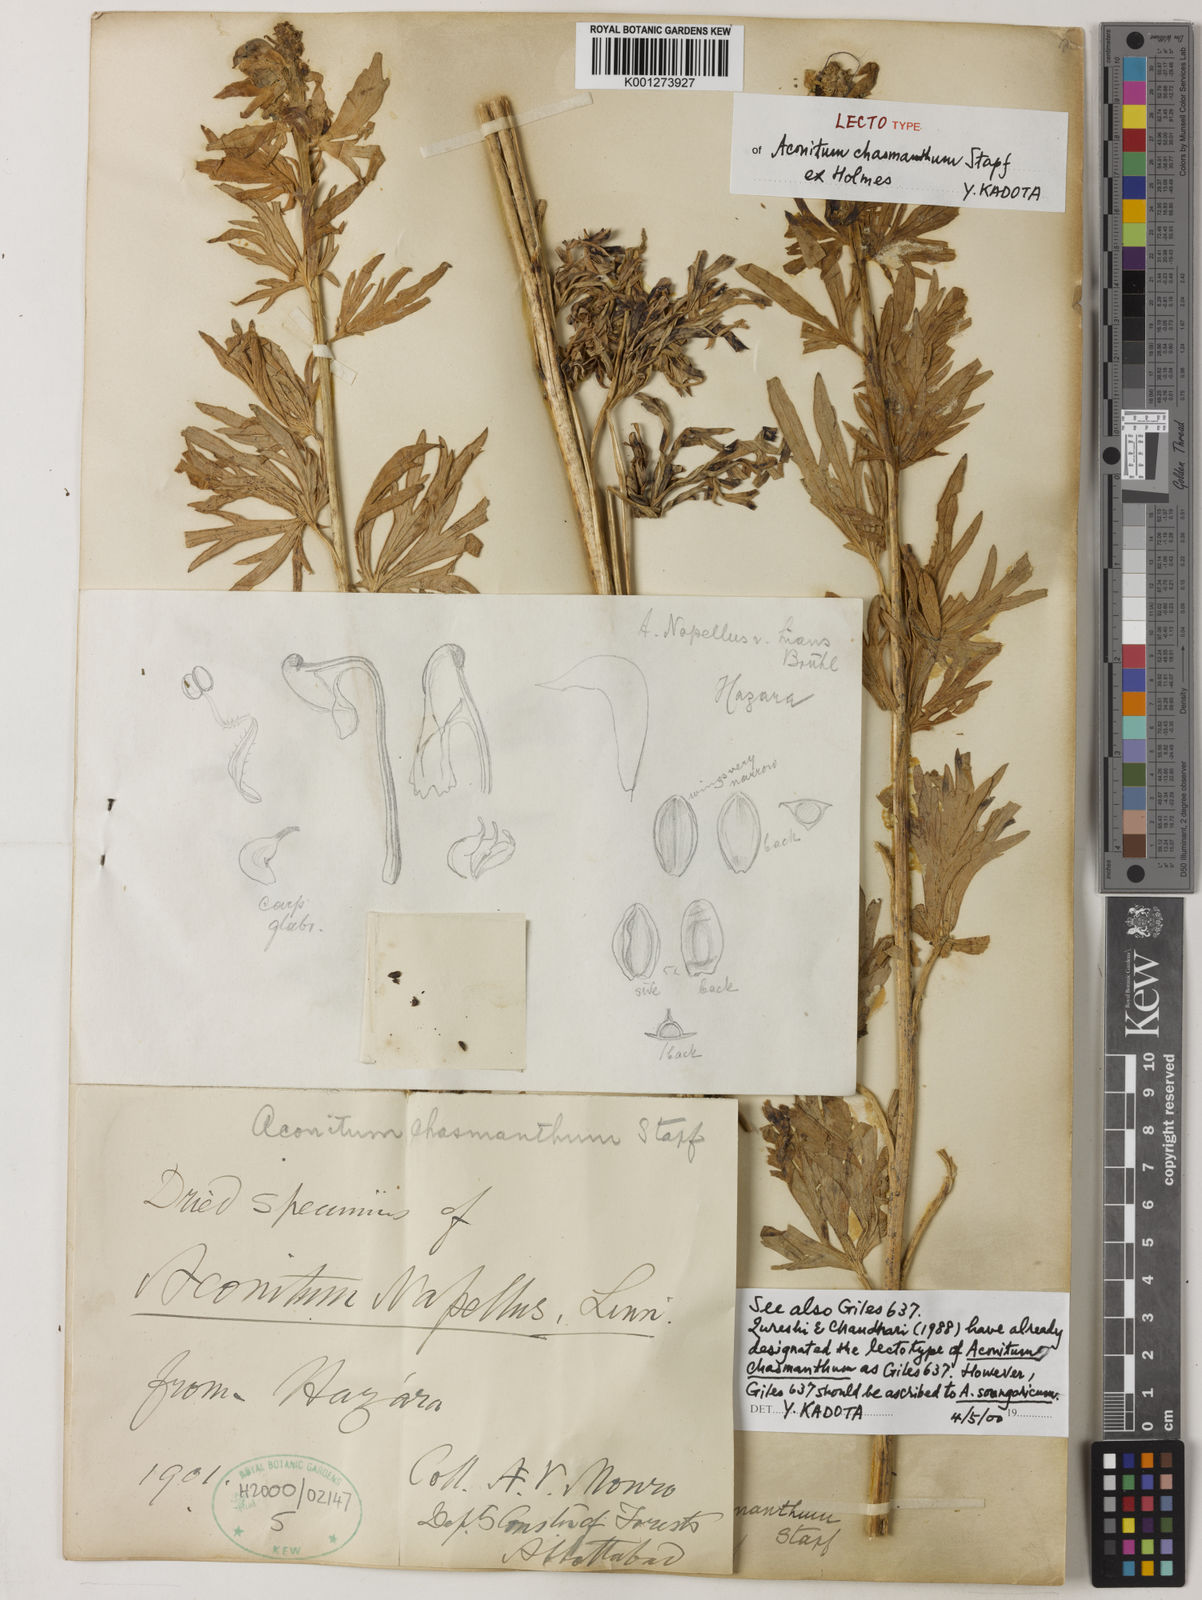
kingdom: Plantae
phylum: Tracheophyta
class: Magnoliopsida
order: Ranunculales
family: Ranunculaceae
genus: Aconitum
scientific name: Aconitum chasmanthum
